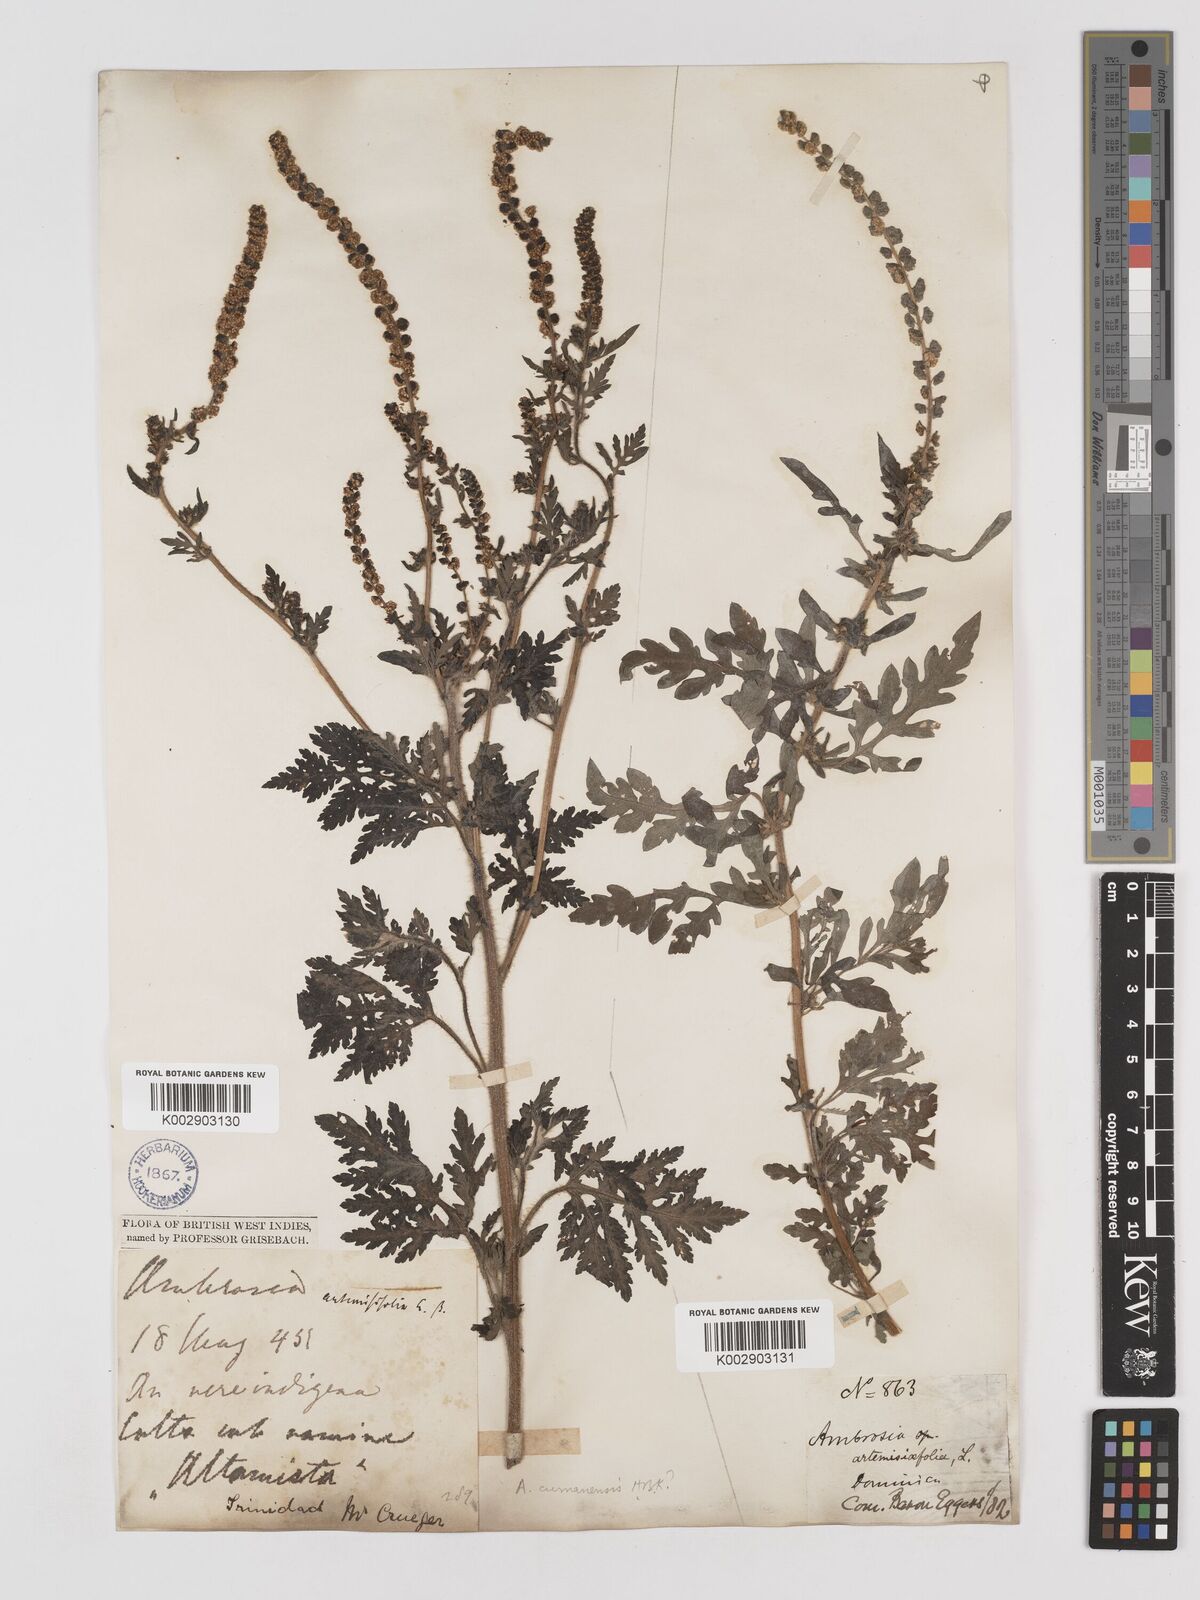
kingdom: Plantae
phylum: Tracheophyta
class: Magnoliopsida
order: Asterales
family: Asteraceae
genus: Ambrosia
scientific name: Ambrosia cumanensis
